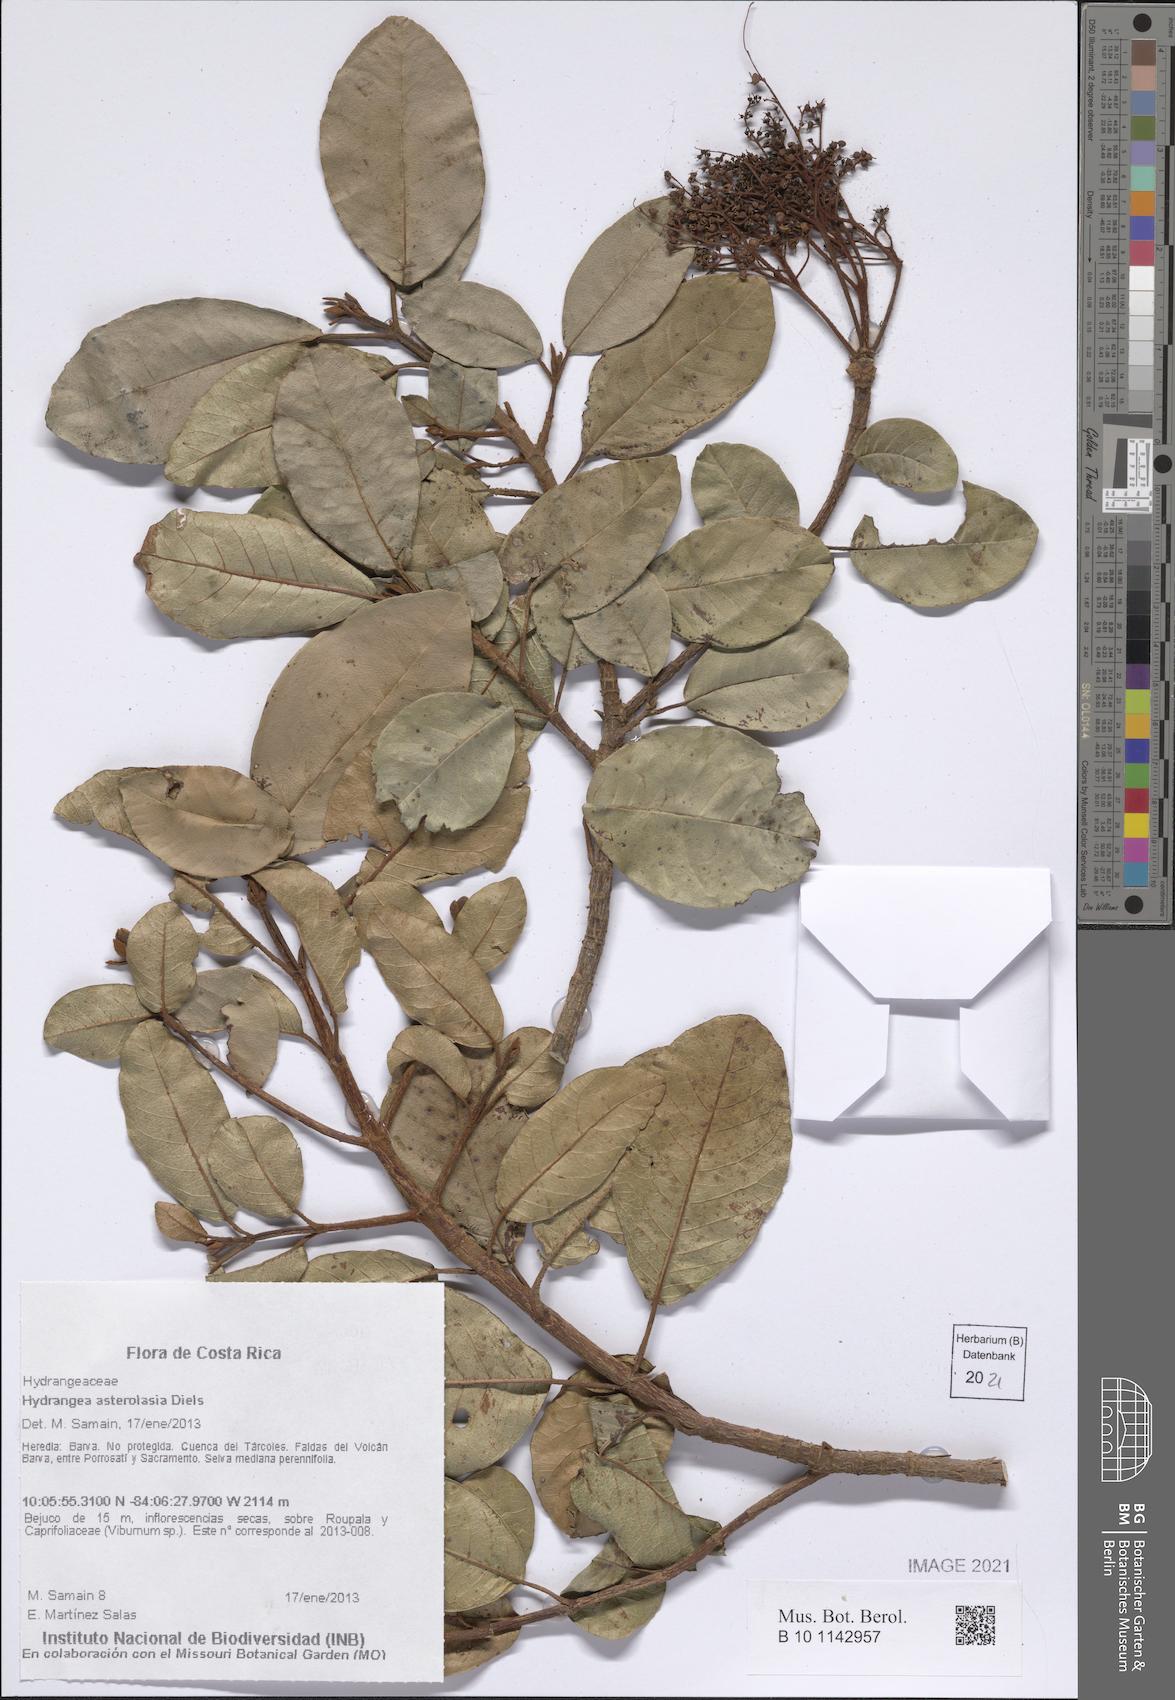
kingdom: Plantae
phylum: Tracheophyta
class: Magnoliopsida
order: Cornales
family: Hydrangeaceae
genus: Hydrangea
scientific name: Hydrangea asterolasia
